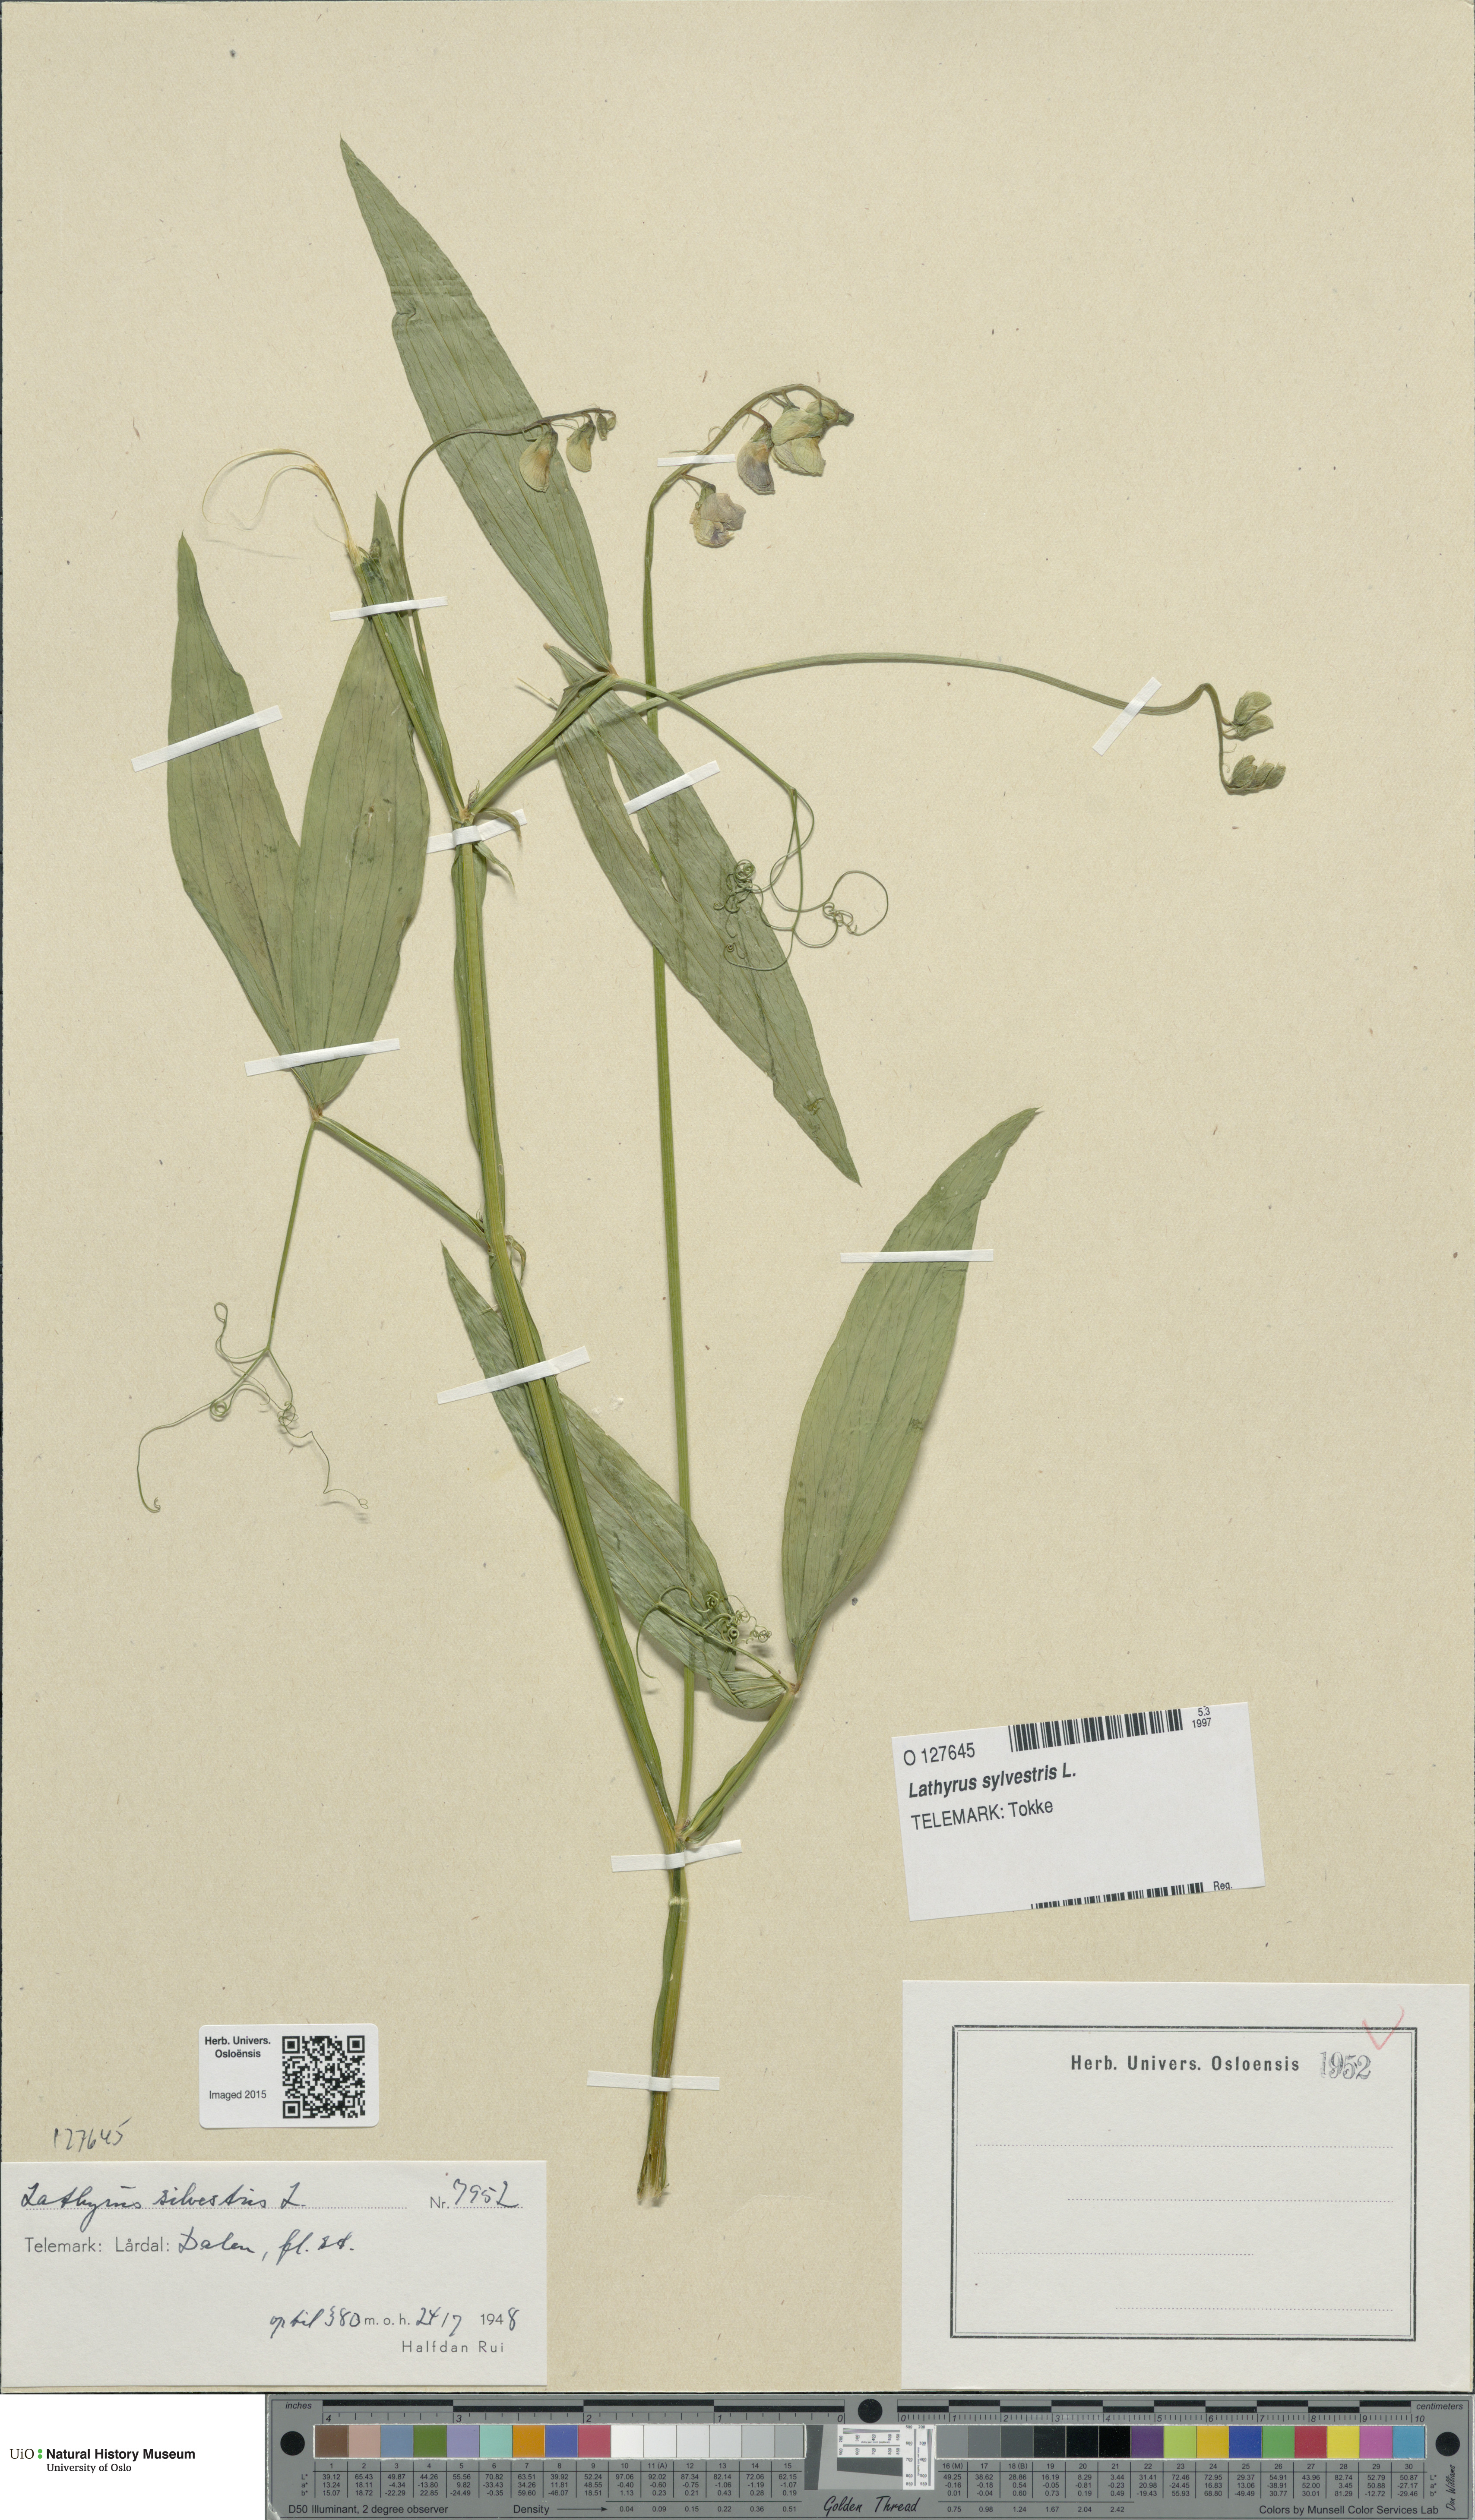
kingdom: Plantae
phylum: Tracheophyta
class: Magnoliopsida
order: Fabales
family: Fabaceae
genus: Lathyrus
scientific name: Lathyrus sylvestris
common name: Flat pea
